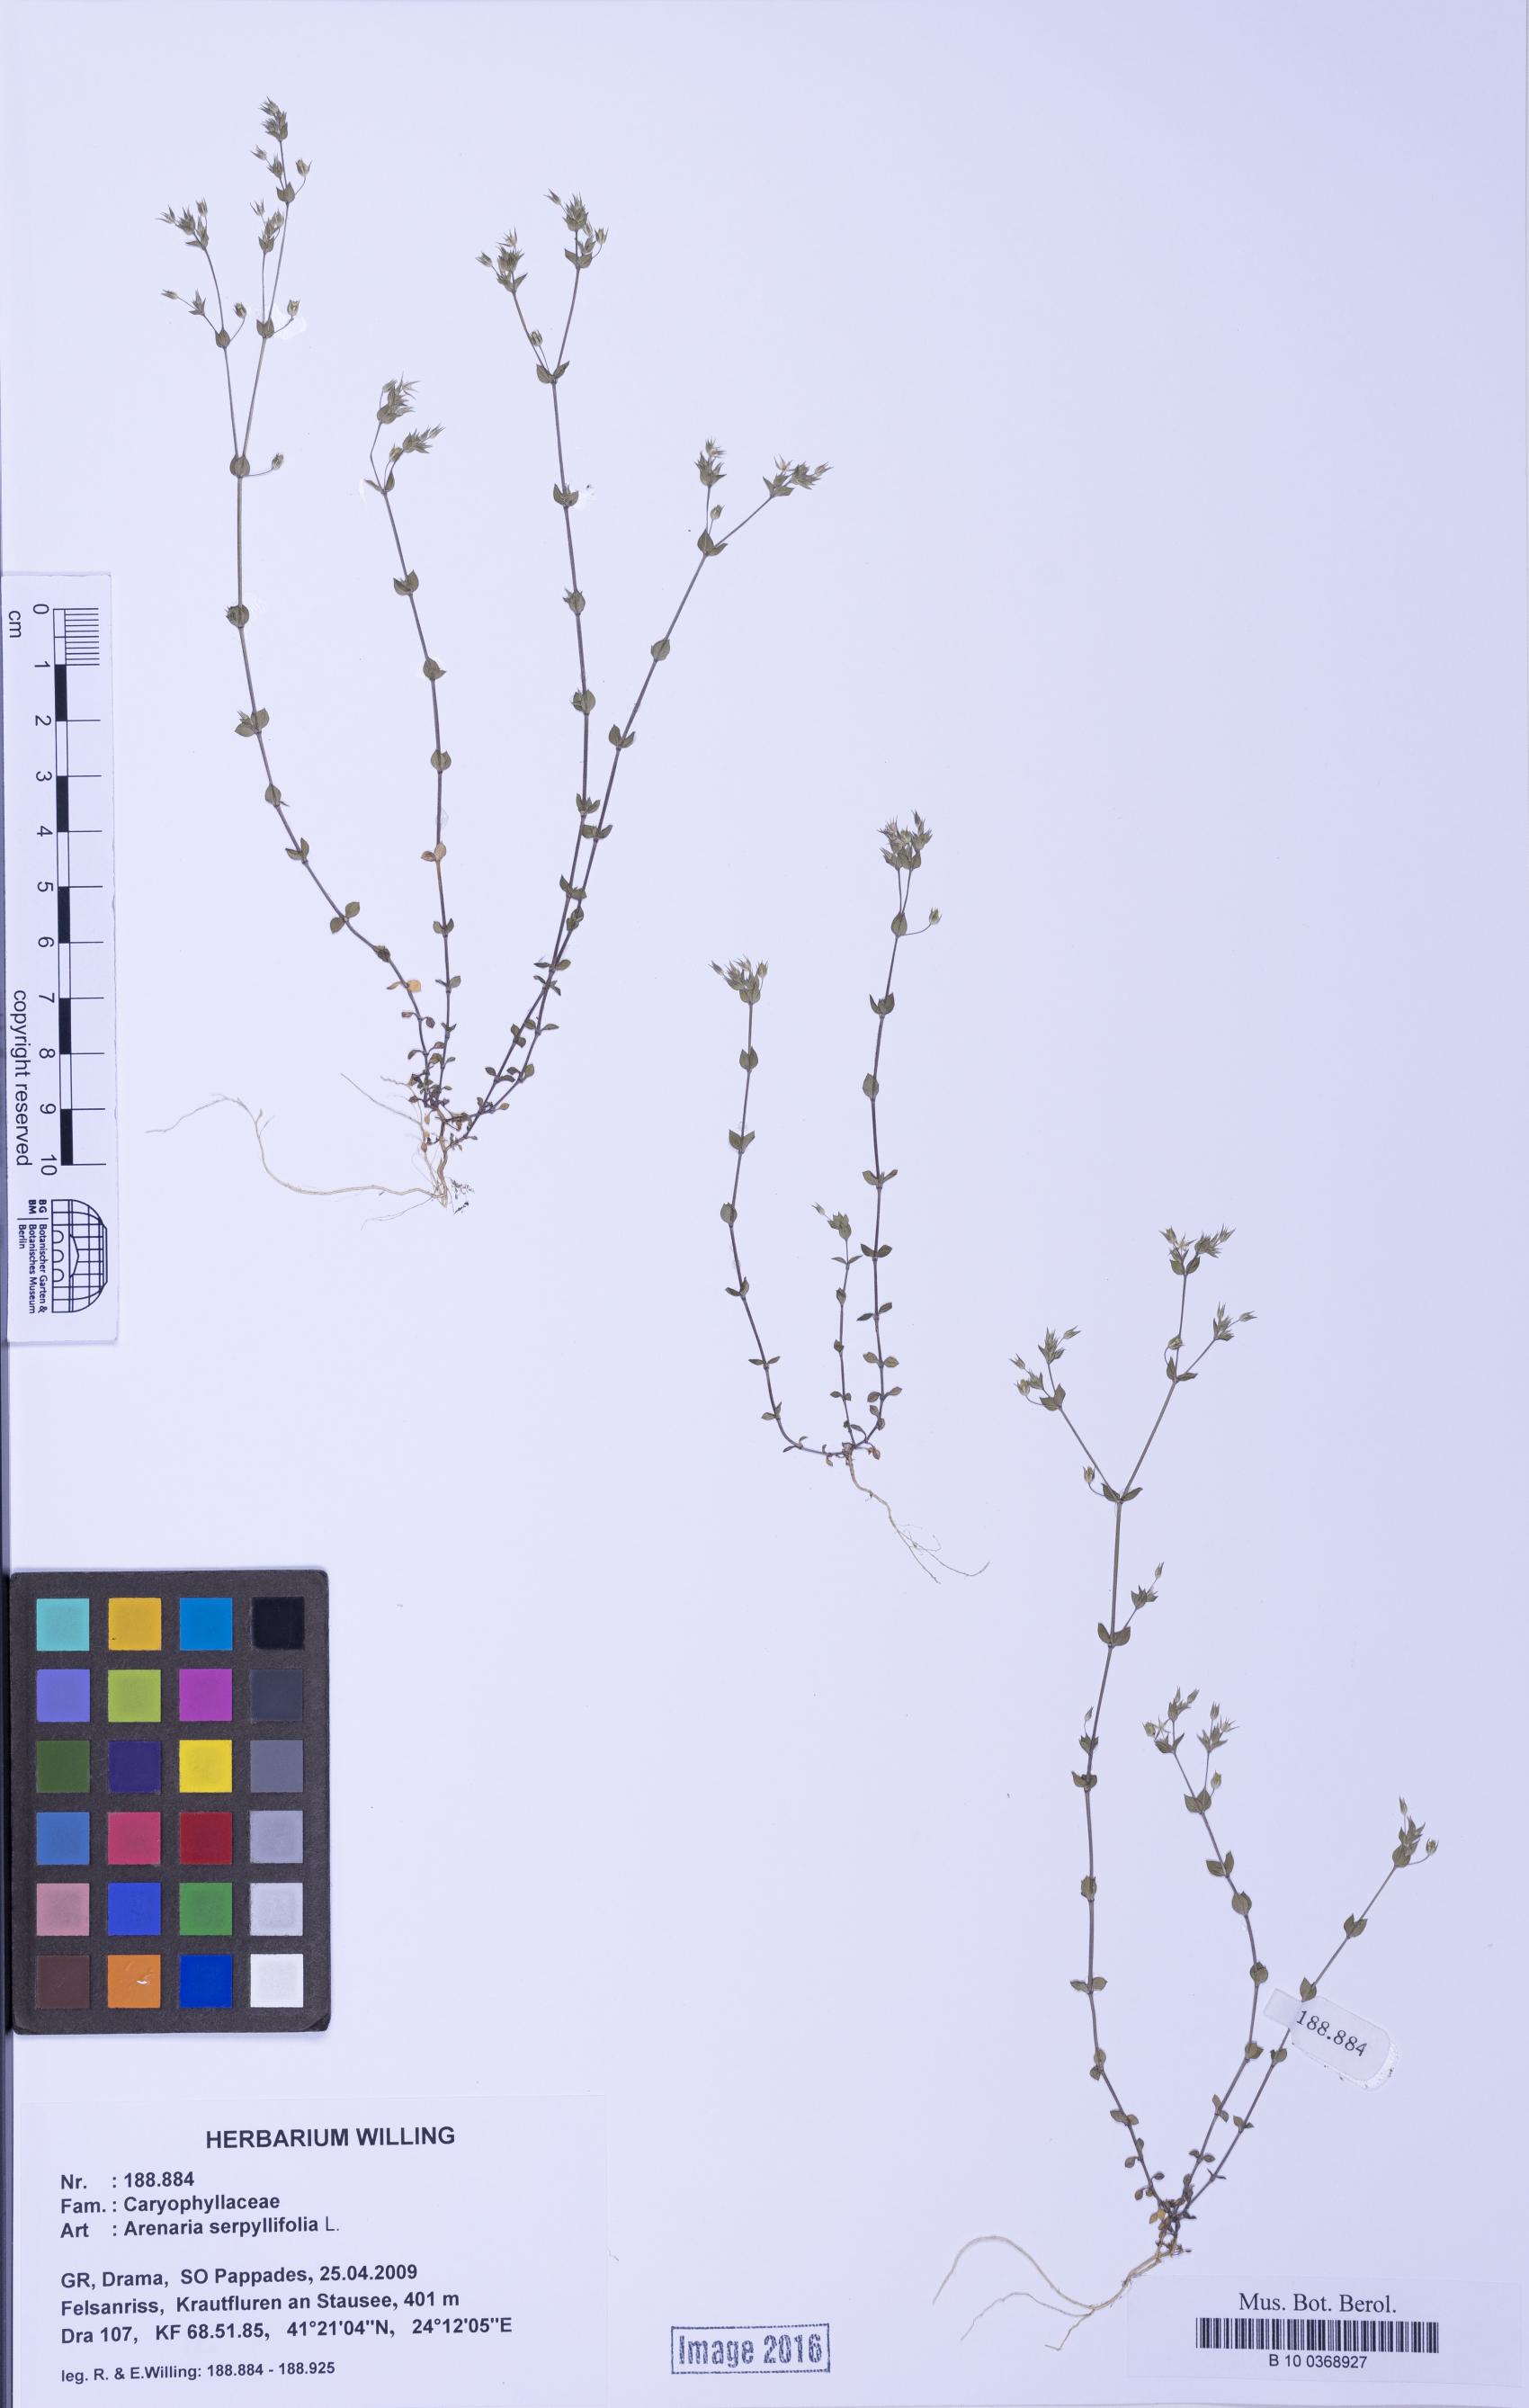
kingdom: Plantae
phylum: Tracheophyta
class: Magnoliopsida
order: Caryophyllales
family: Caryophyllaceae
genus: Arenaria
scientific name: Arenaria serpyllifolia
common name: Thyme-leaved sandwort
